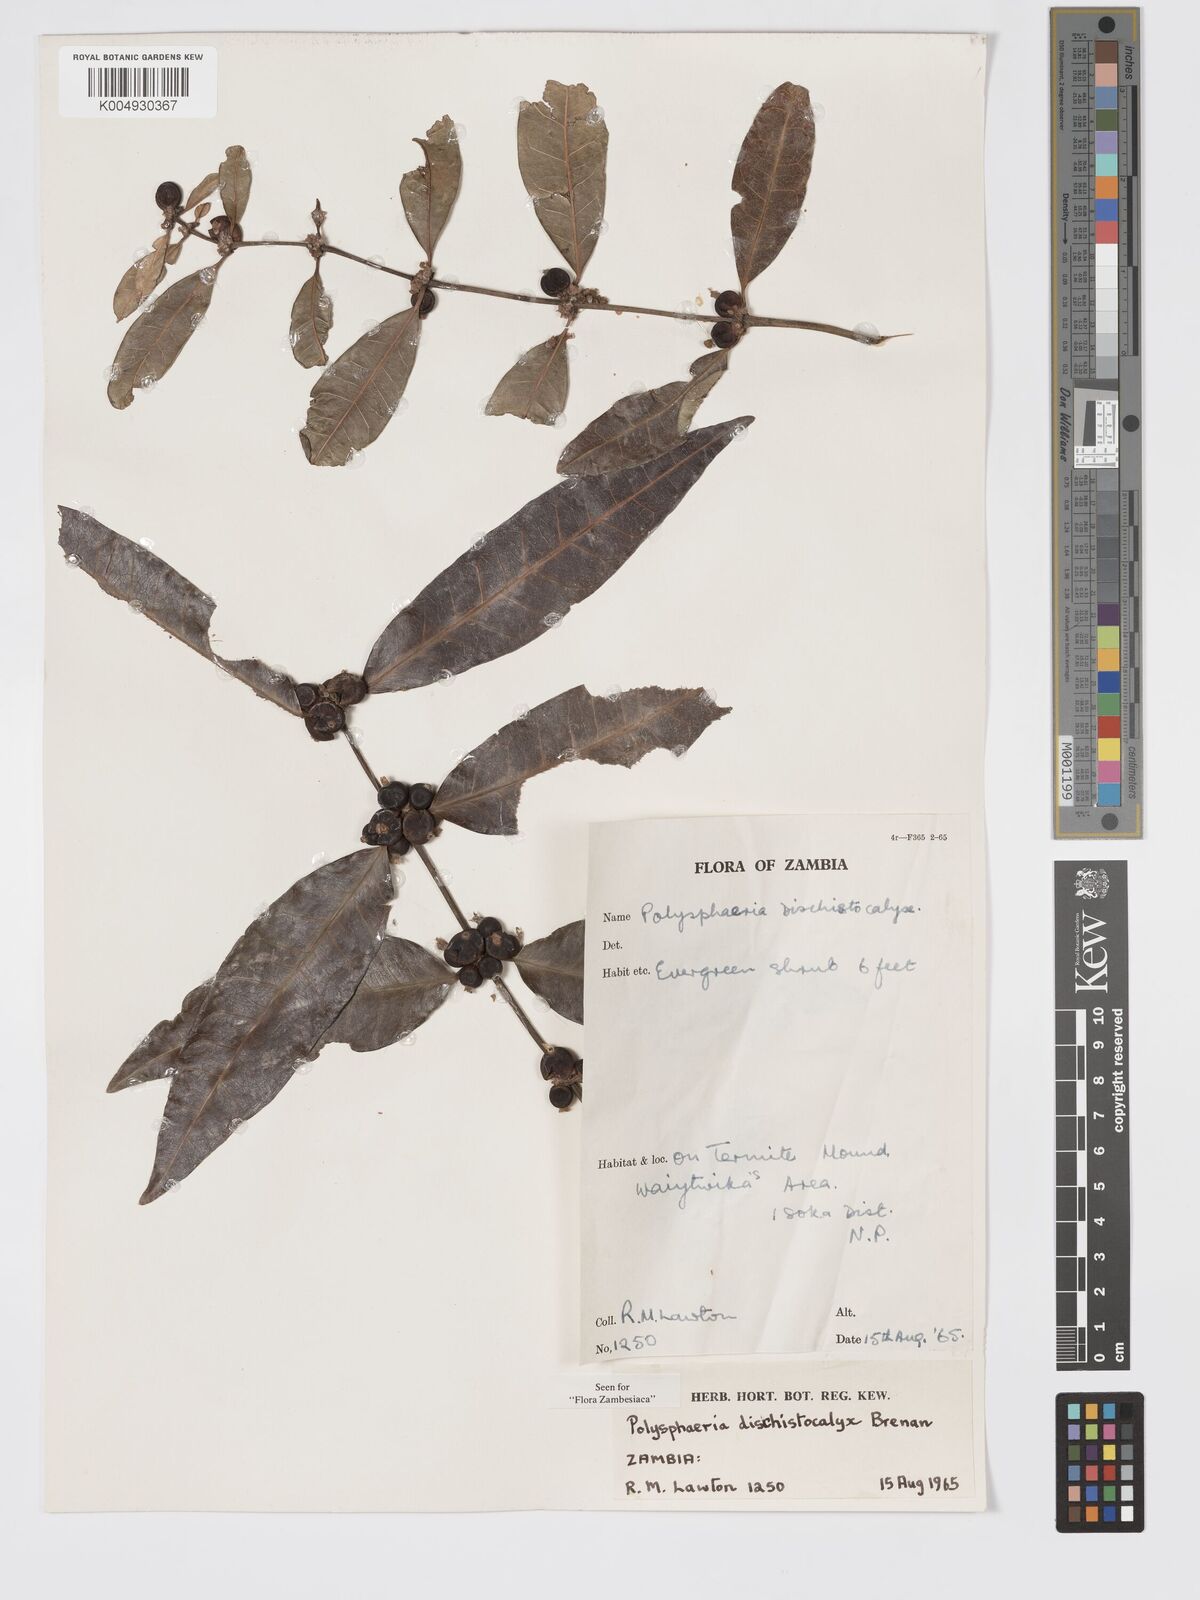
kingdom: Plantae
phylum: Tracheophyta
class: Magnoliopsida
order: Gentianales
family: Rubiaceae
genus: Polysphaeria
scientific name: Polysphaeria dischistocalyx
